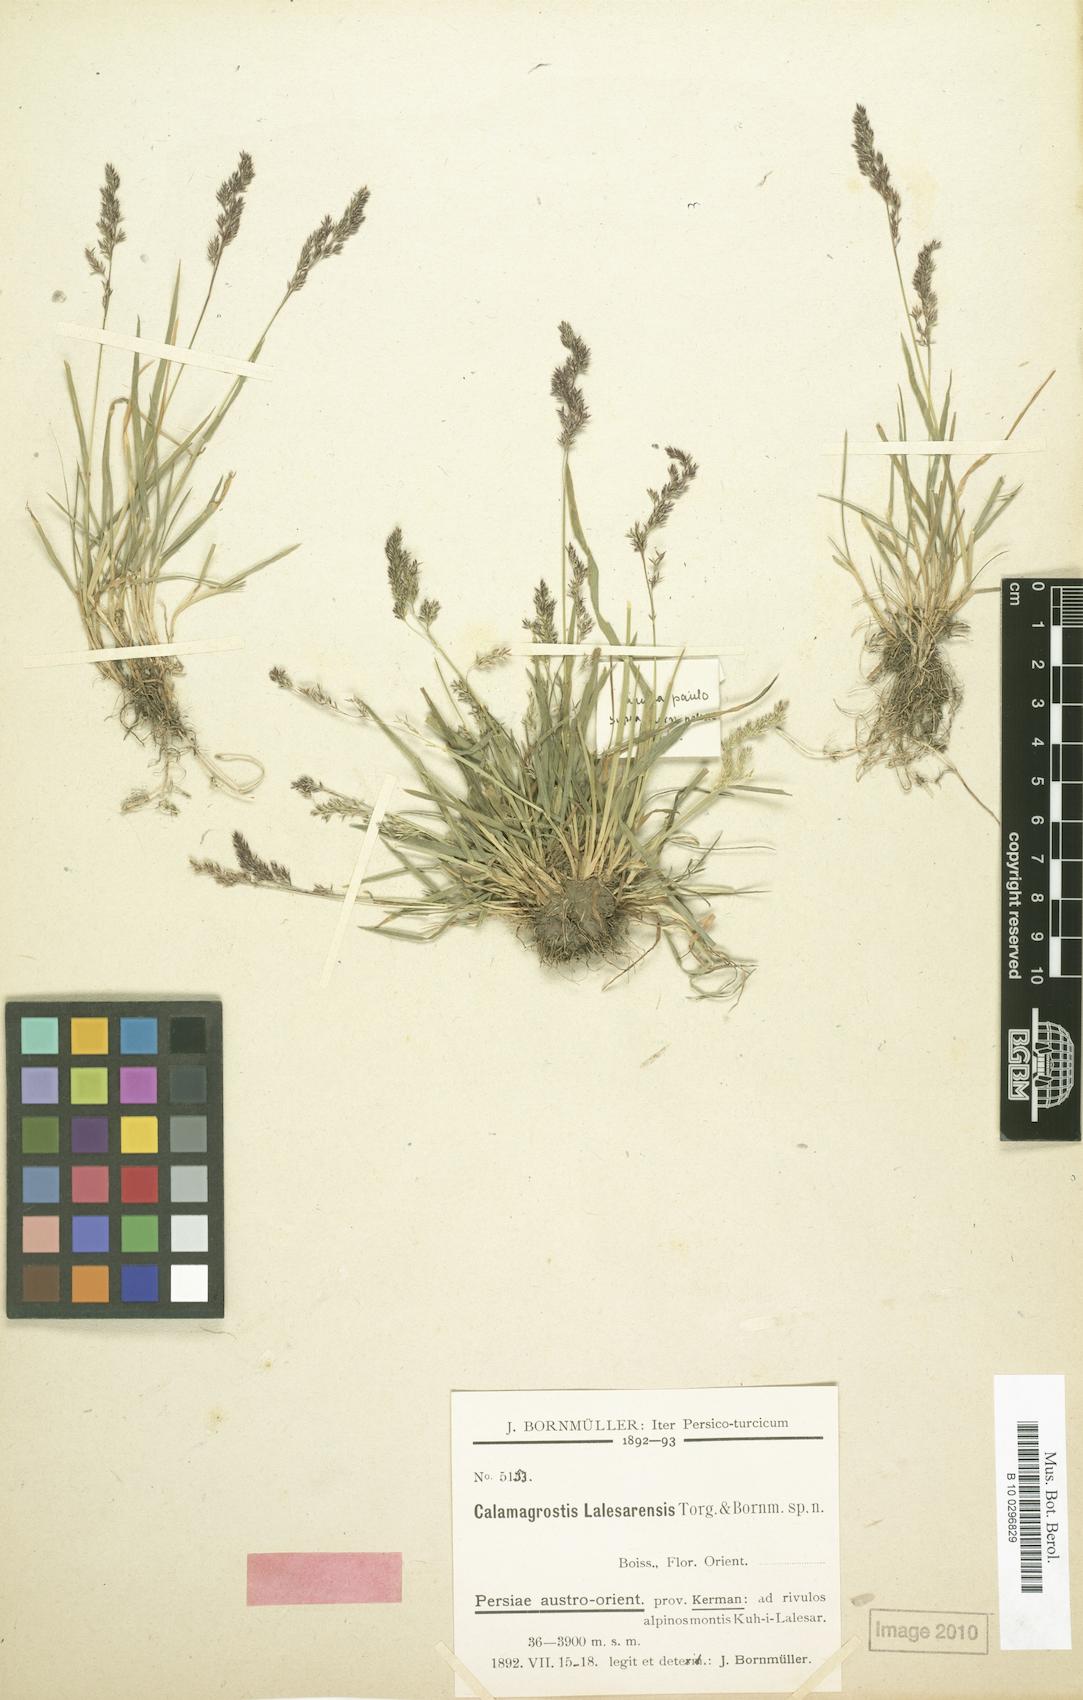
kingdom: Plantae
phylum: Tracheophyta
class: Liliopsida
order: Poales
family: Poaceae
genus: Agrostis
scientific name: Agrostis olympica
